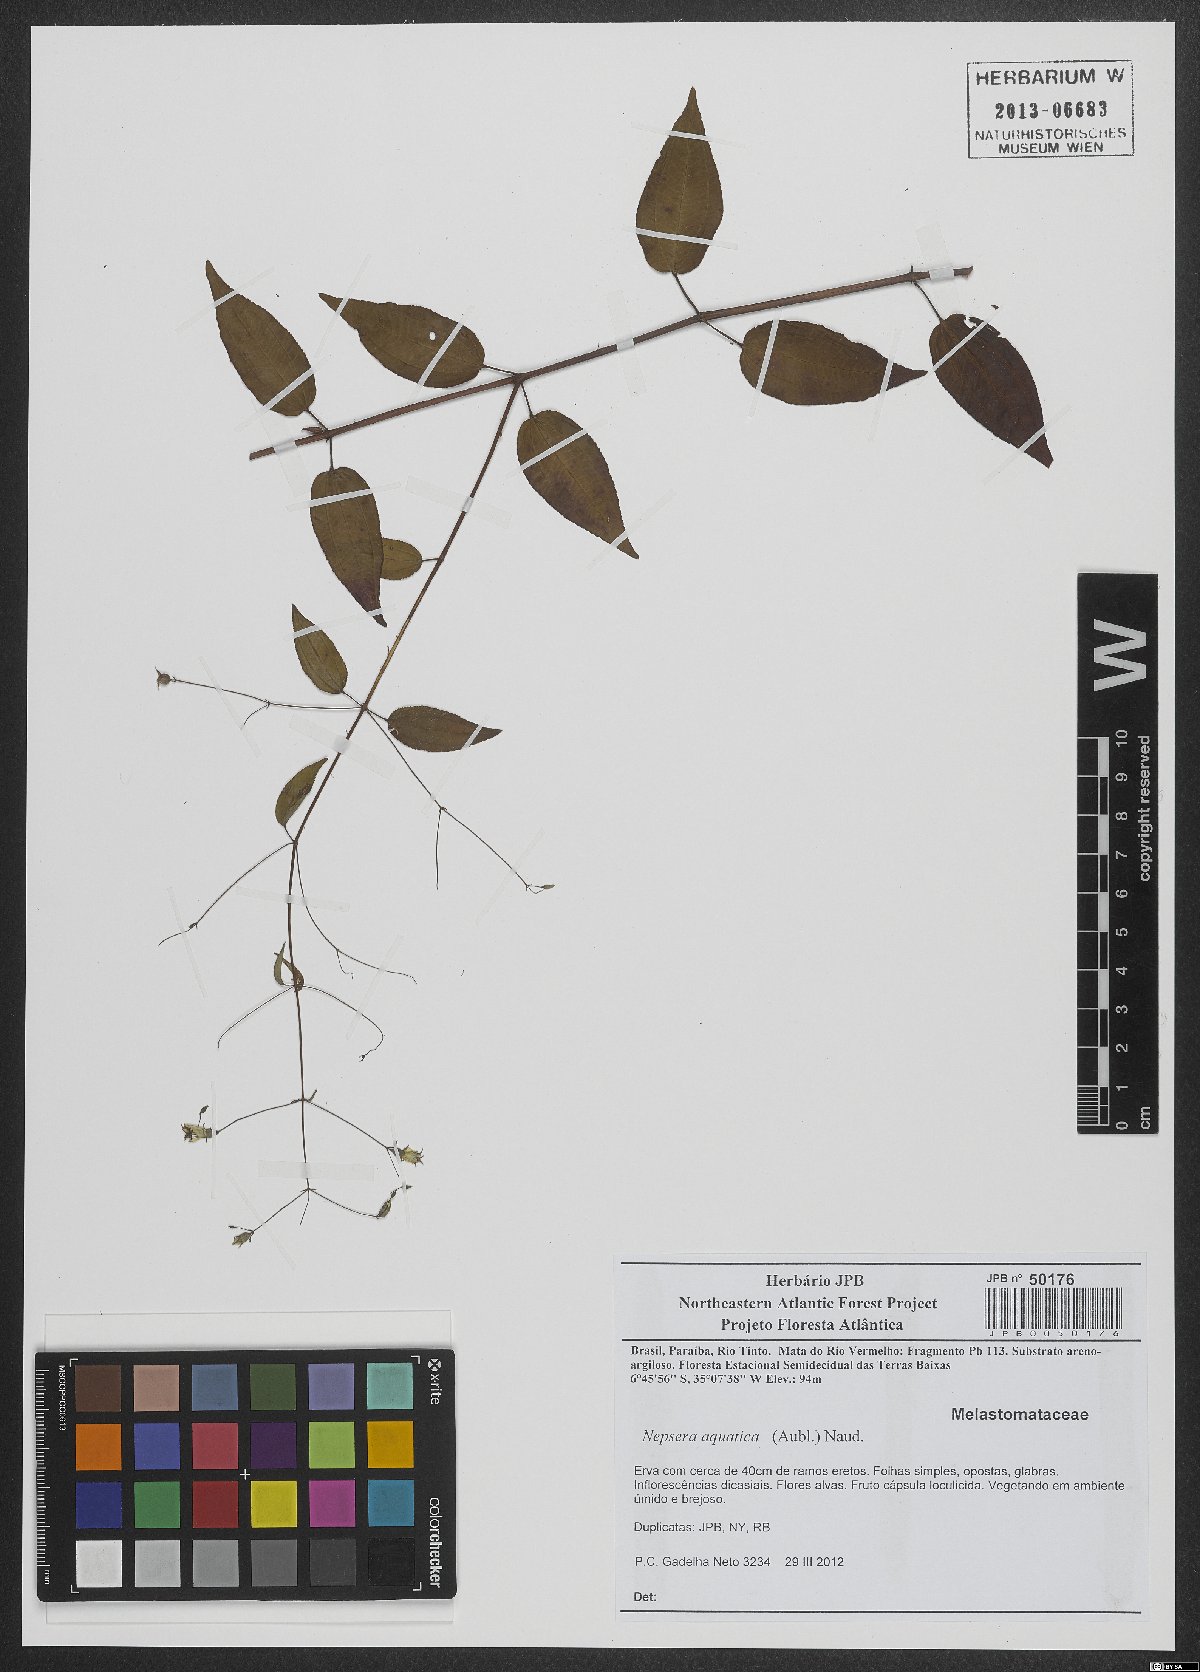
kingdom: Plantae
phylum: Tracheophyta
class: Magnoliopsida
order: Myrtales
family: Melastomataceae
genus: Nepsera
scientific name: Nepsera aquatica
